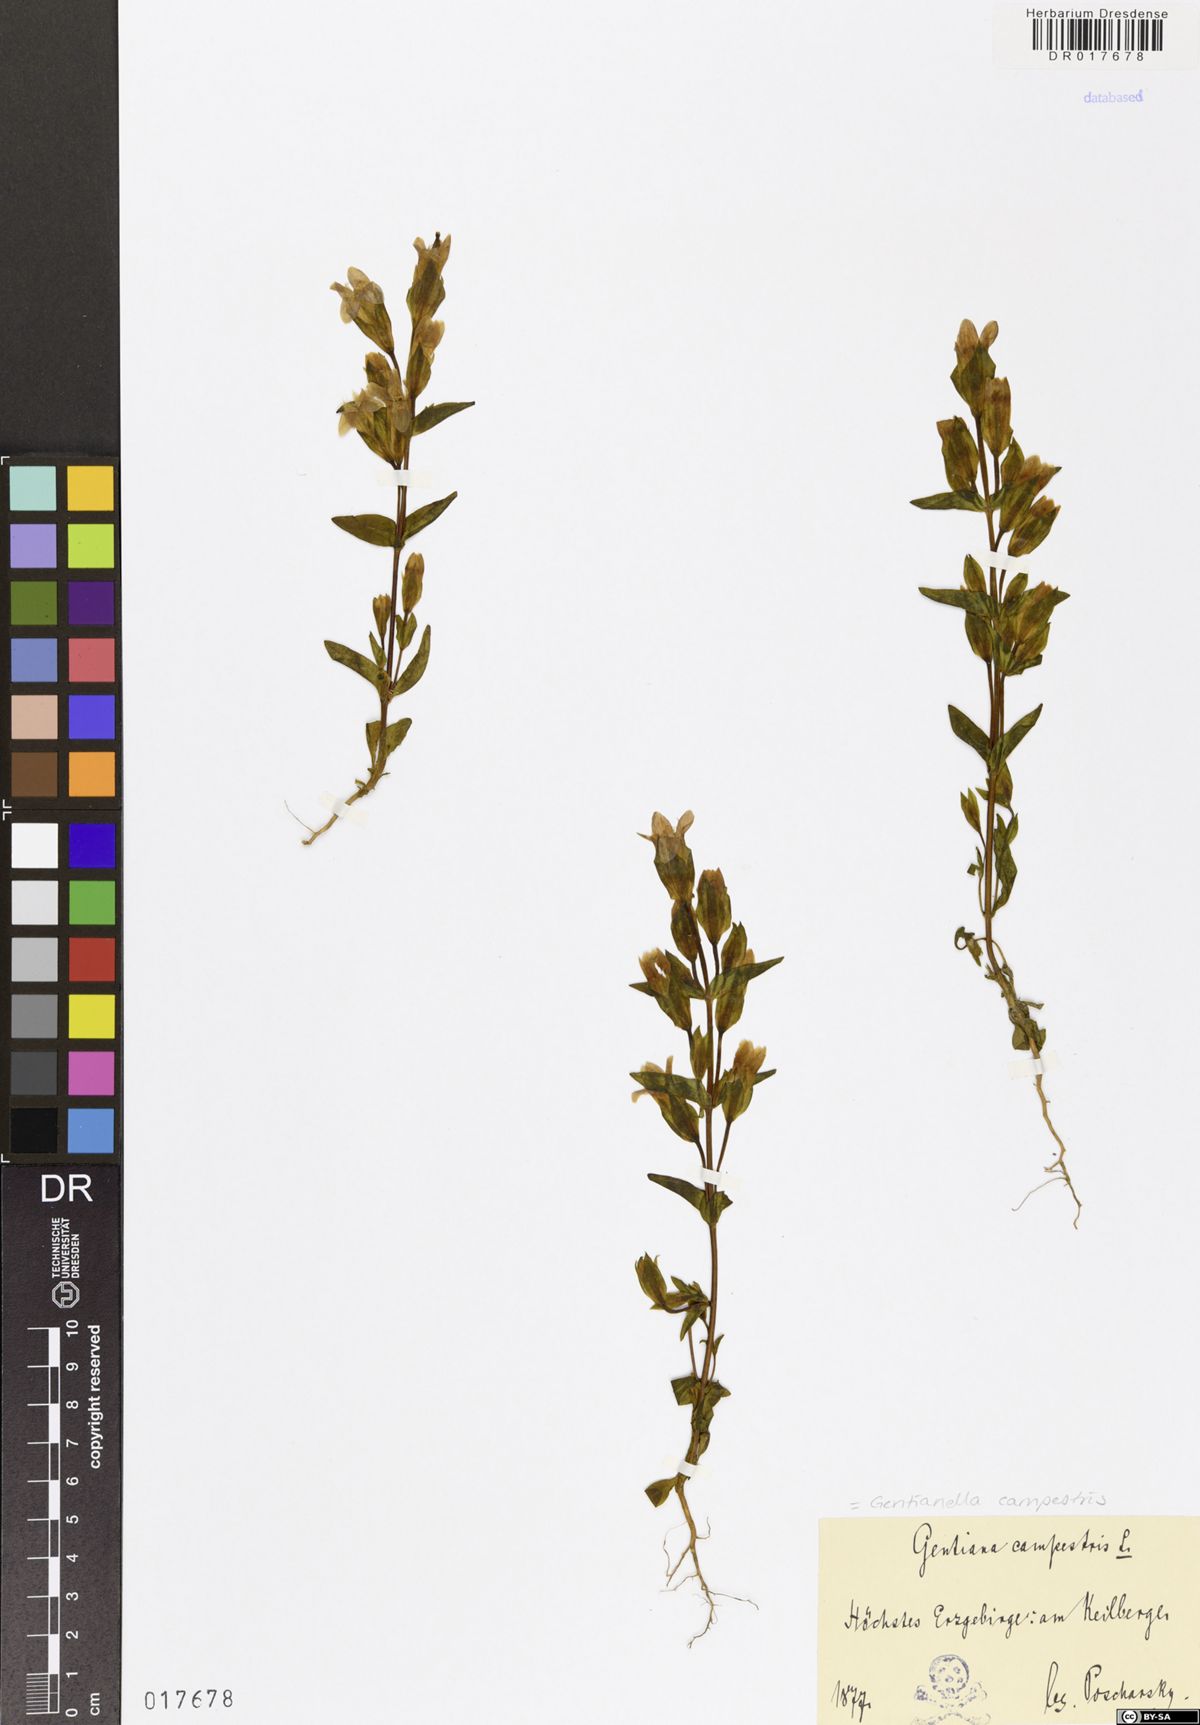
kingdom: Plantae
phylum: Tracheophyta
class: Magnoliopsida
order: Gentianales
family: Gentianaceae
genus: Gentianella
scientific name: Gentianella campestris
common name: Field gentian
